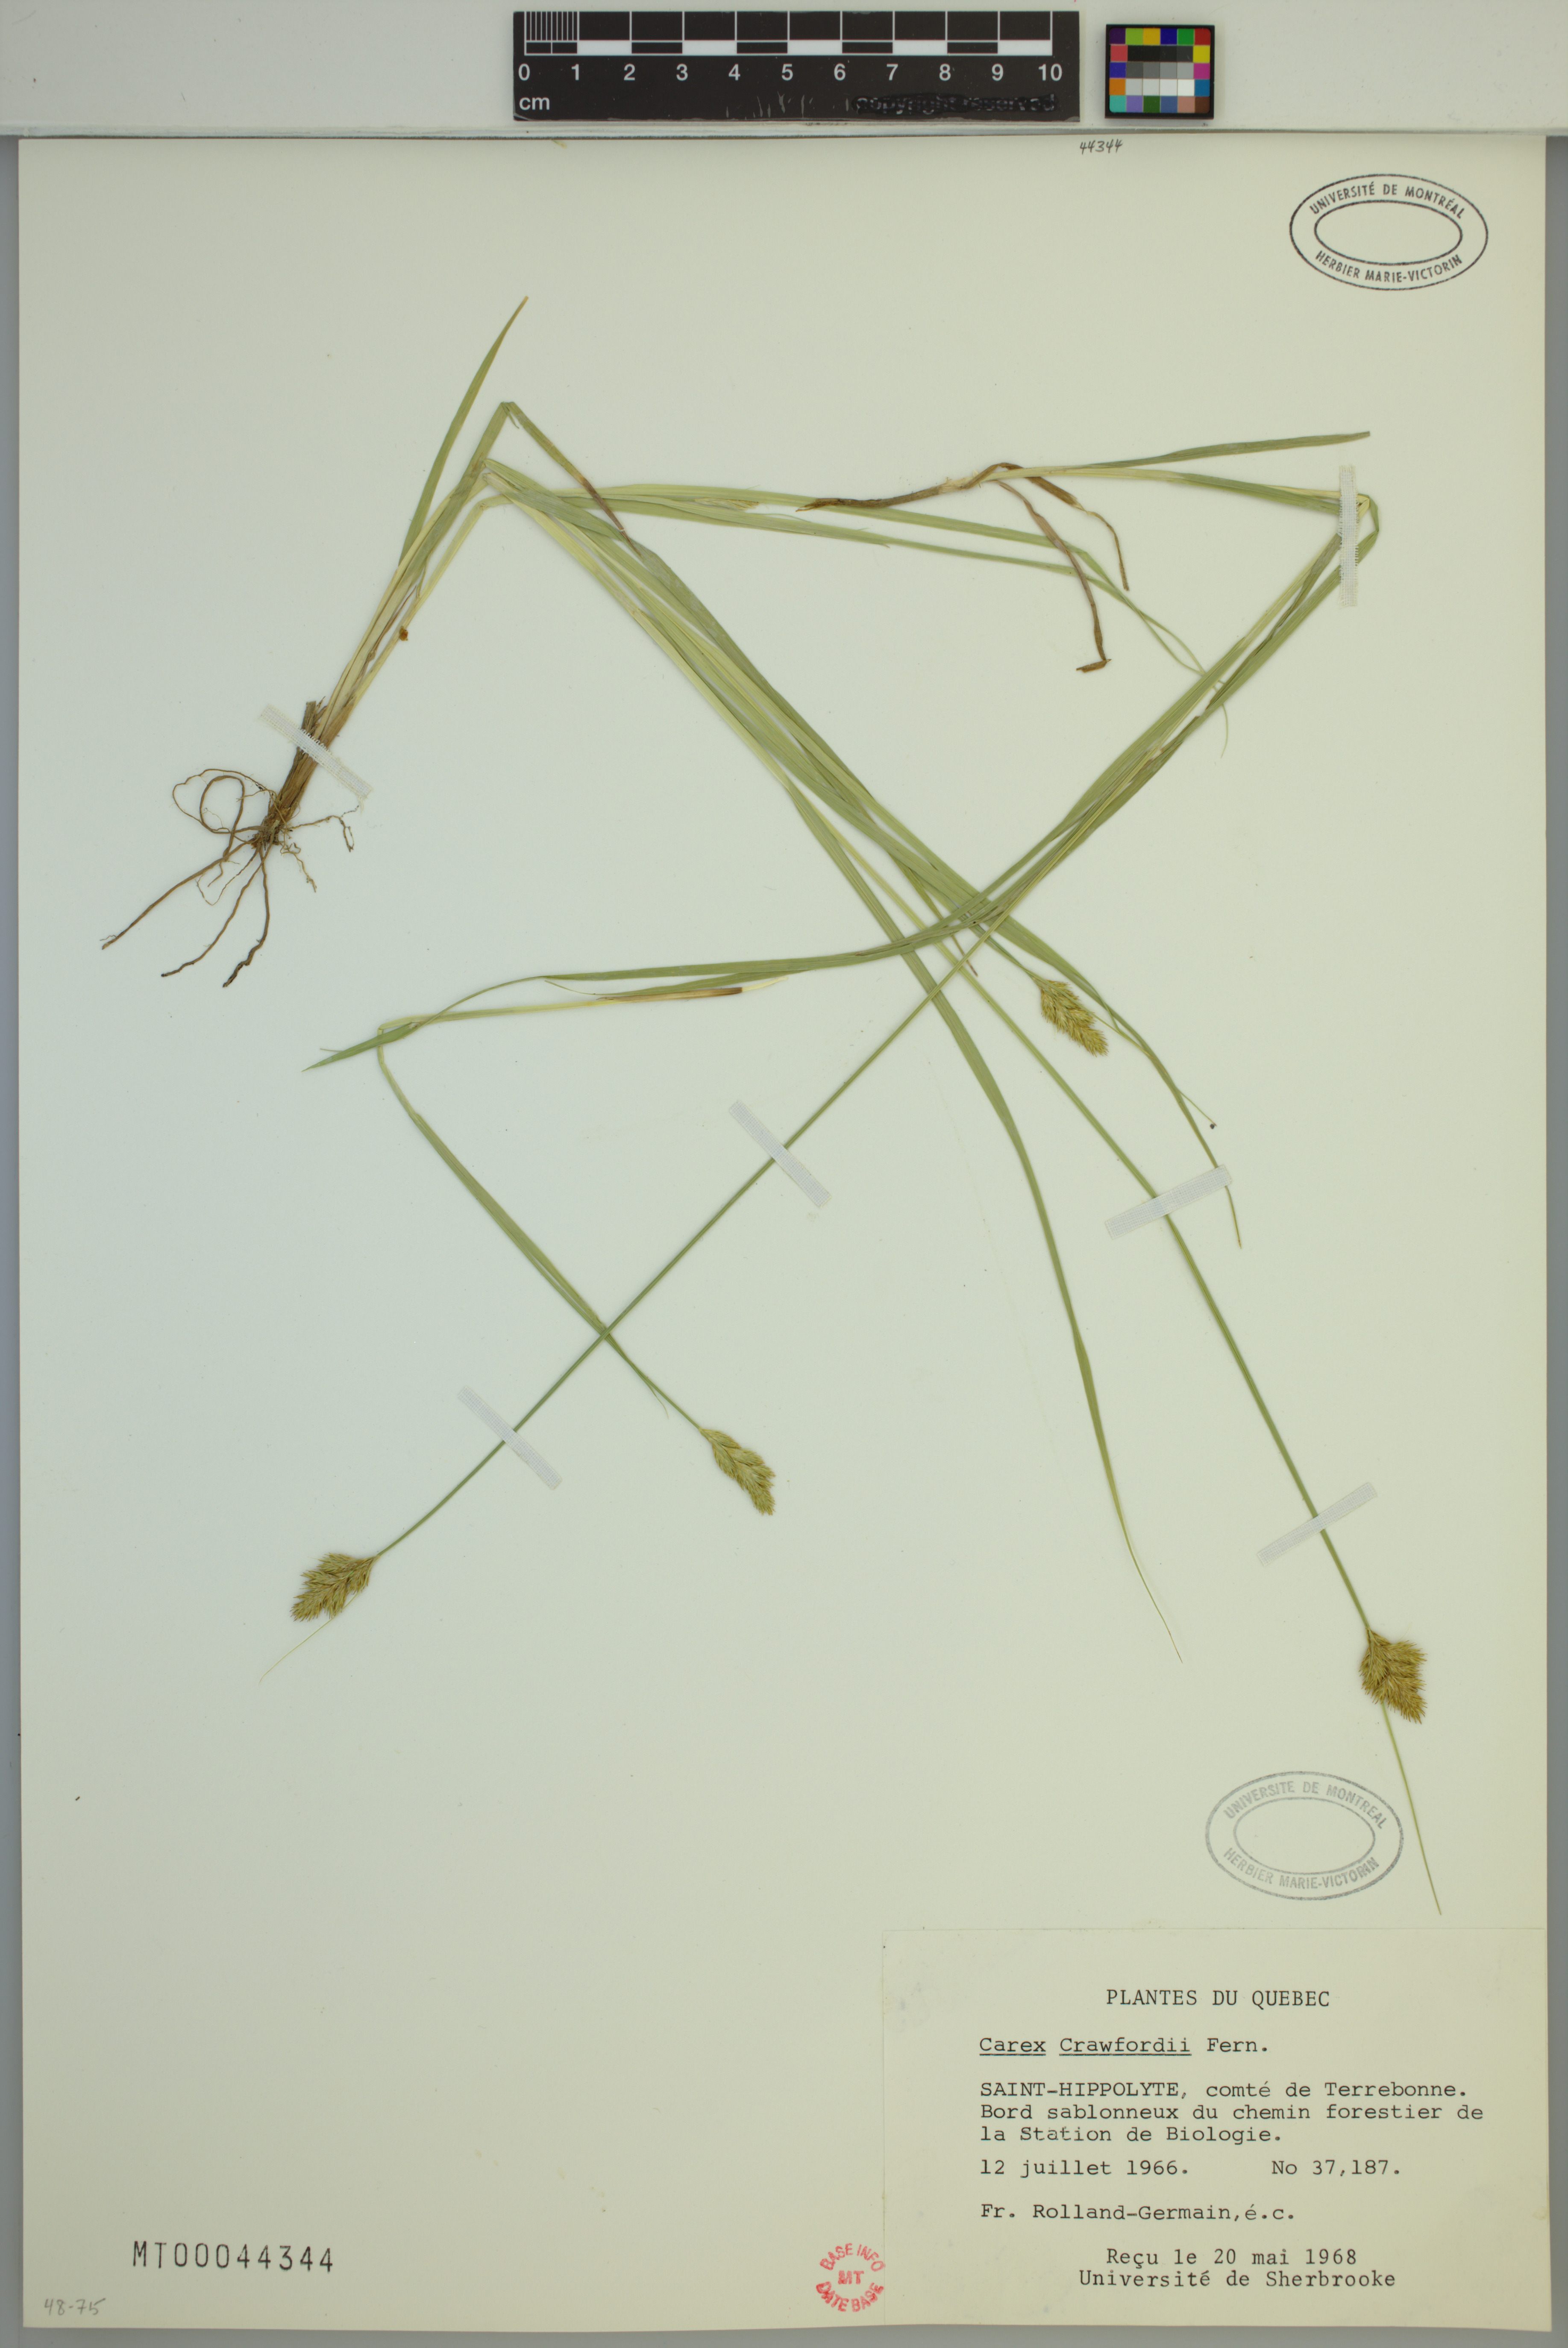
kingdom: Plantae
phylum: Tracheophyta
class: Liliopsida
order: Poales
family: Cyperaceae
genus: Carex
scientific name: Carex crawfordii
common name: Crawford's sedge
